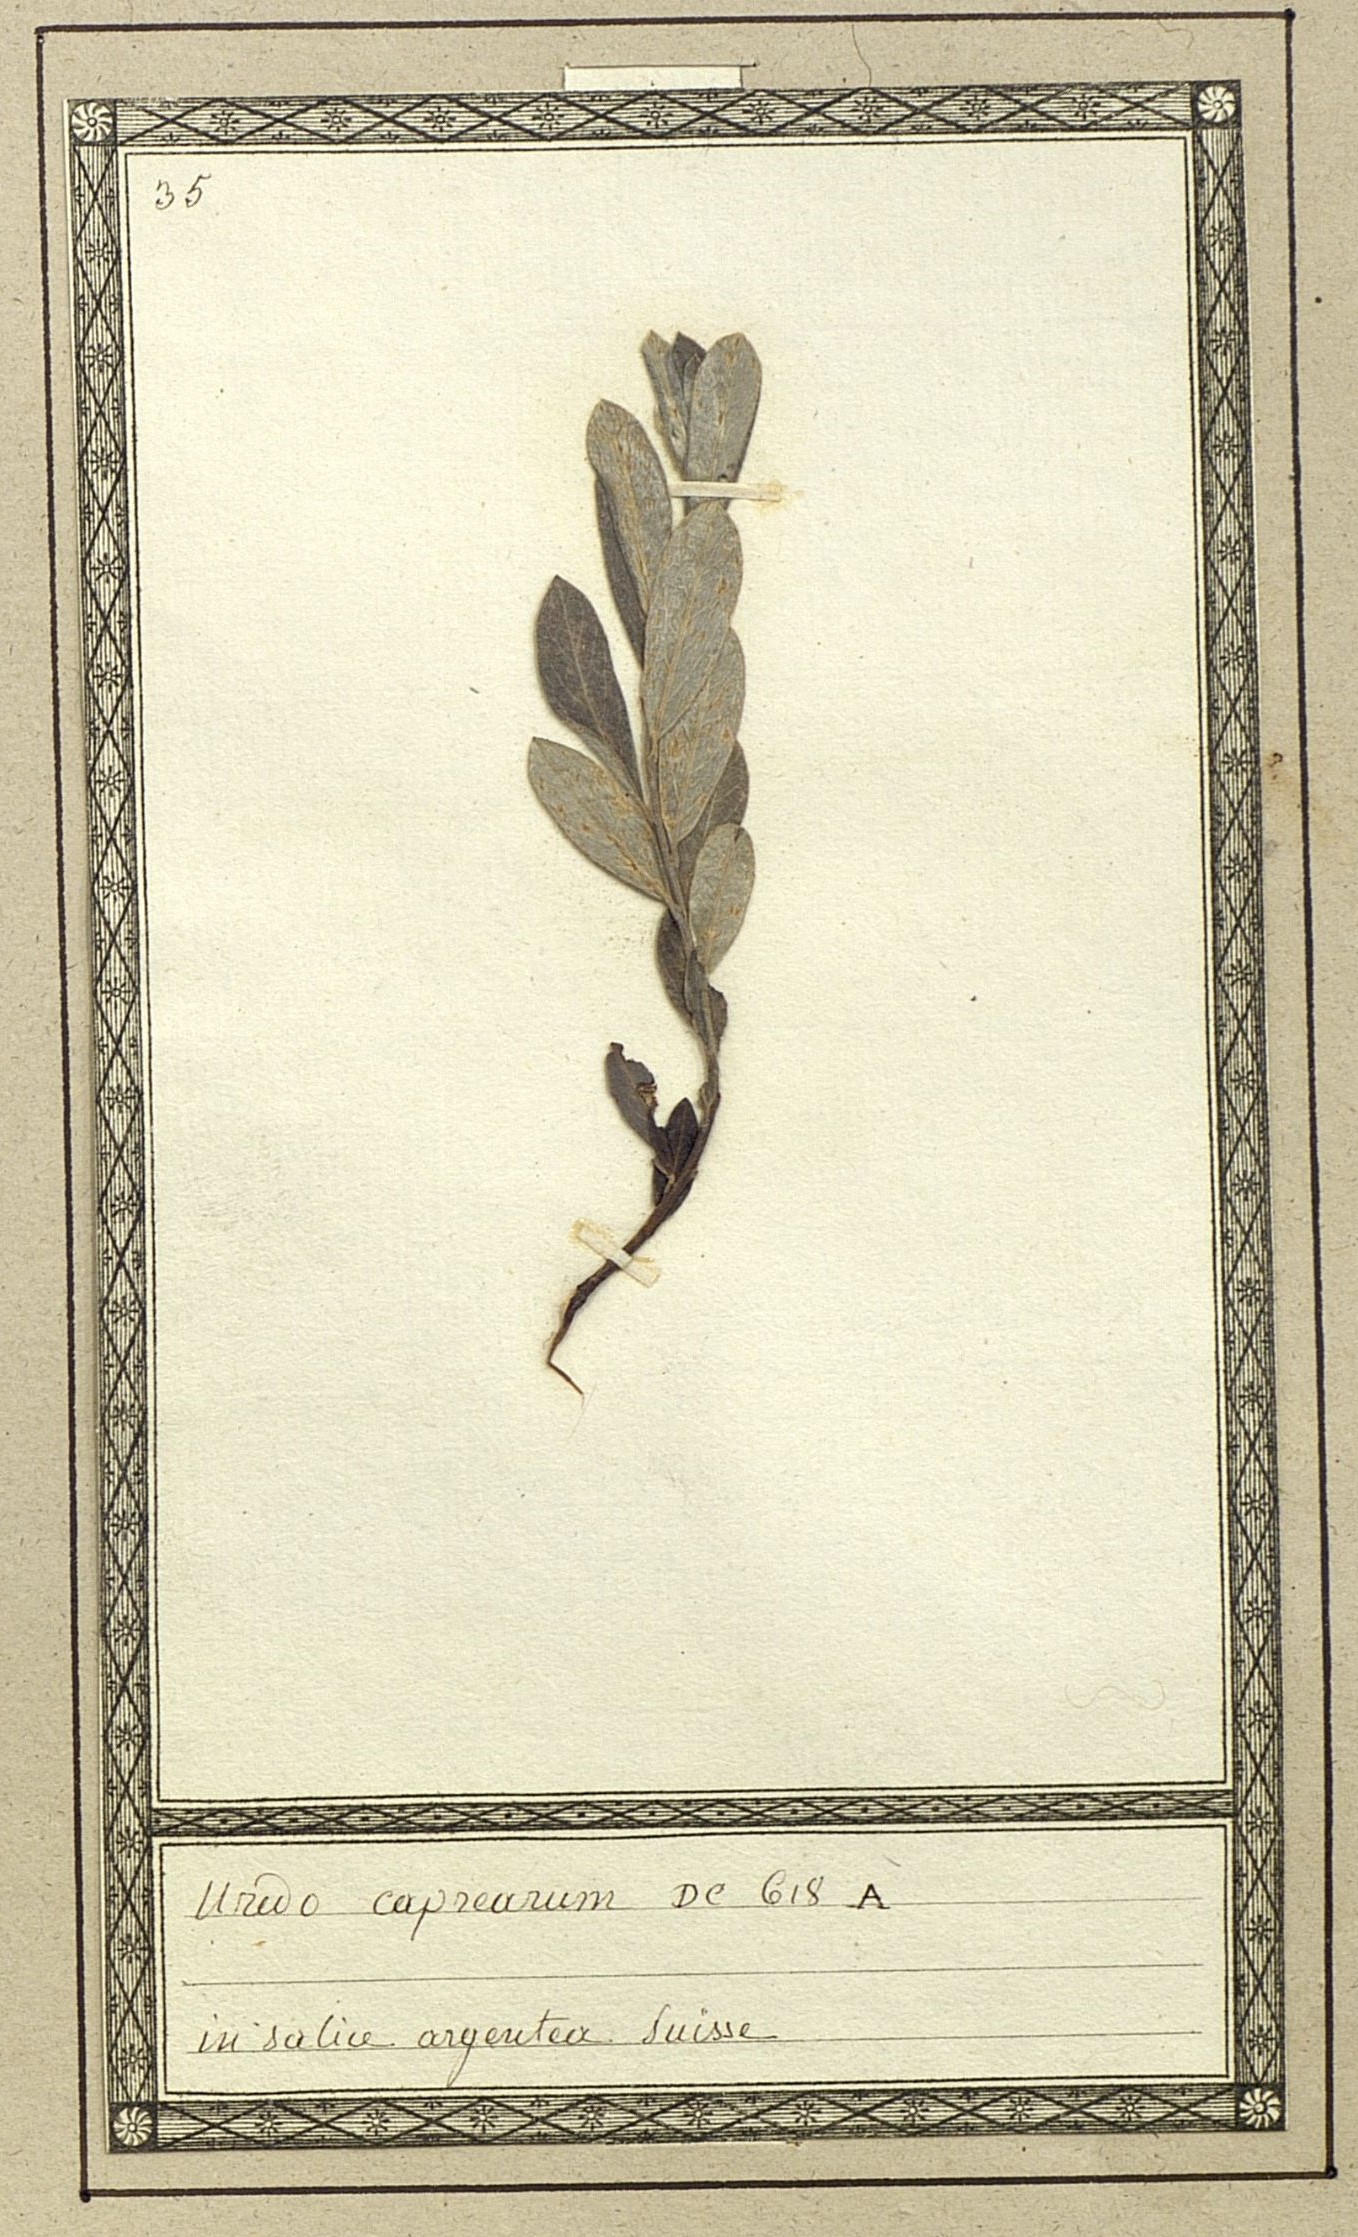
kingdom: Fungi
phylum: Basidiomycota
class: Pucciniomycetes
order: Pucciniales
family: Melampsoraceae
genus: Melampsora
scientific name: Melampsora caprearum
